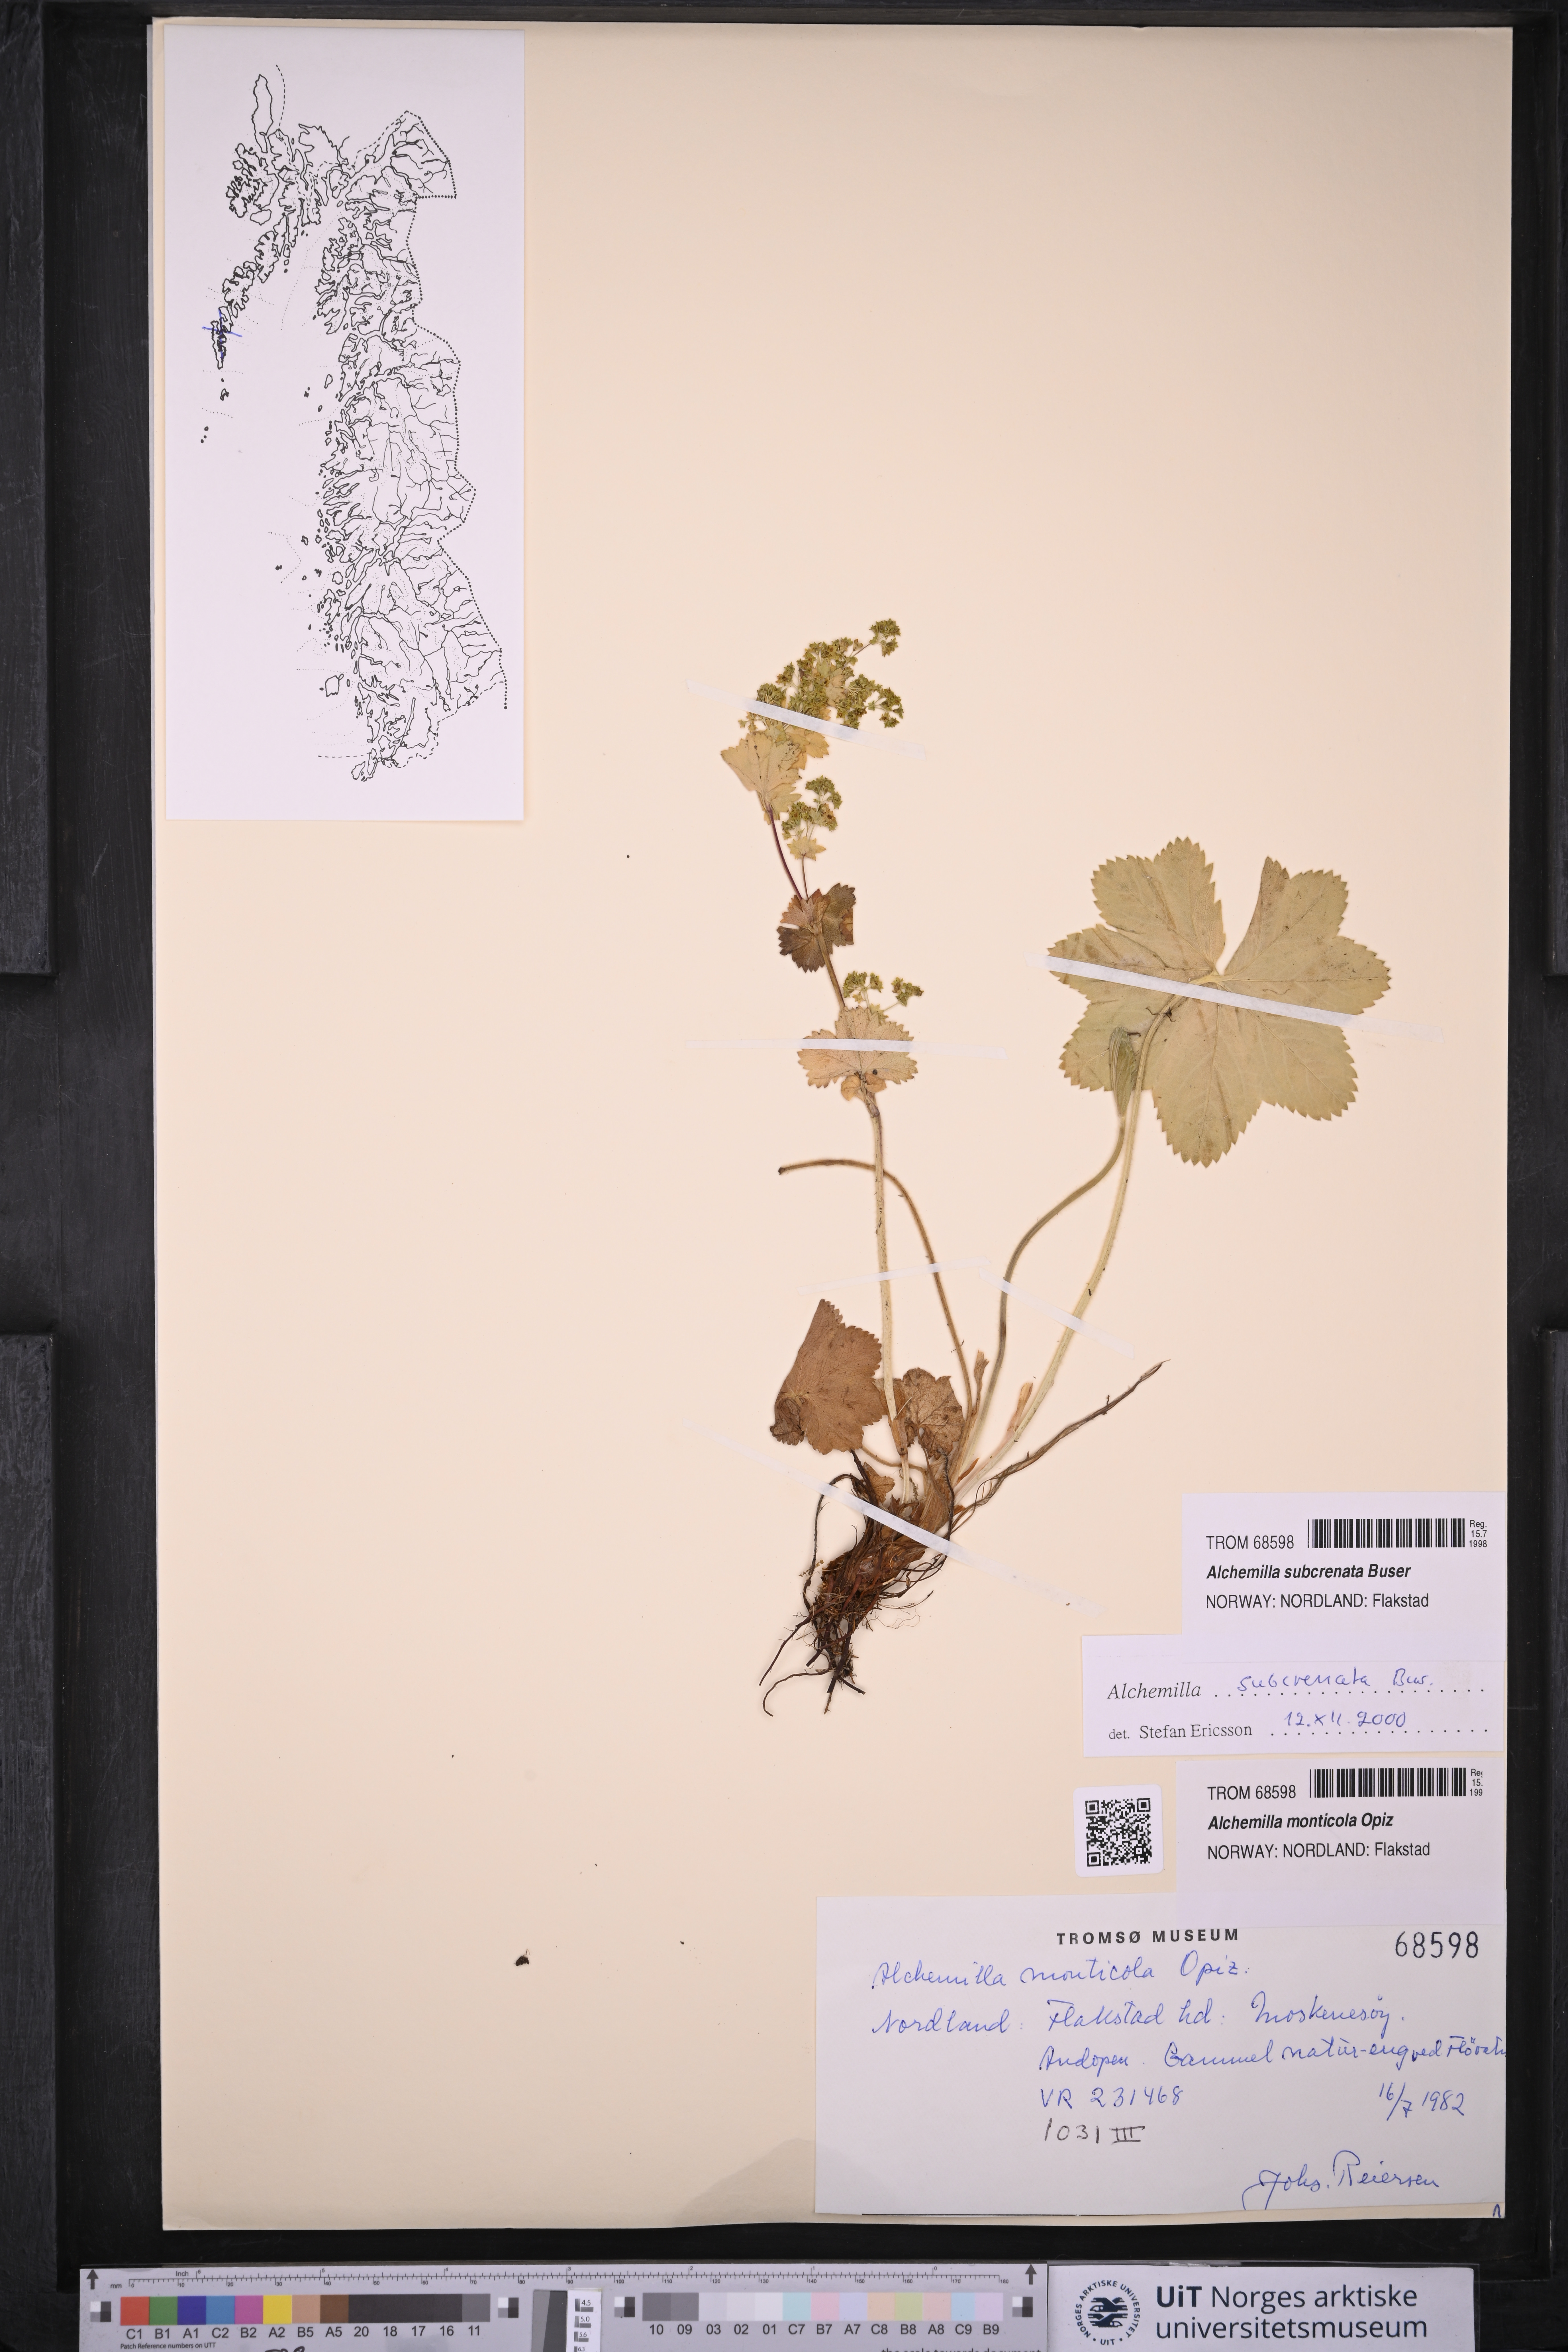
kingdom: Plantae
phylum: Tracheophyta
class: Magnoliopsida
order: Rosales
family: Rosaceae
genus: Alchemilla
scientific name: Alchemilla subcrenata
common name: Broadtooth lady's mantle
